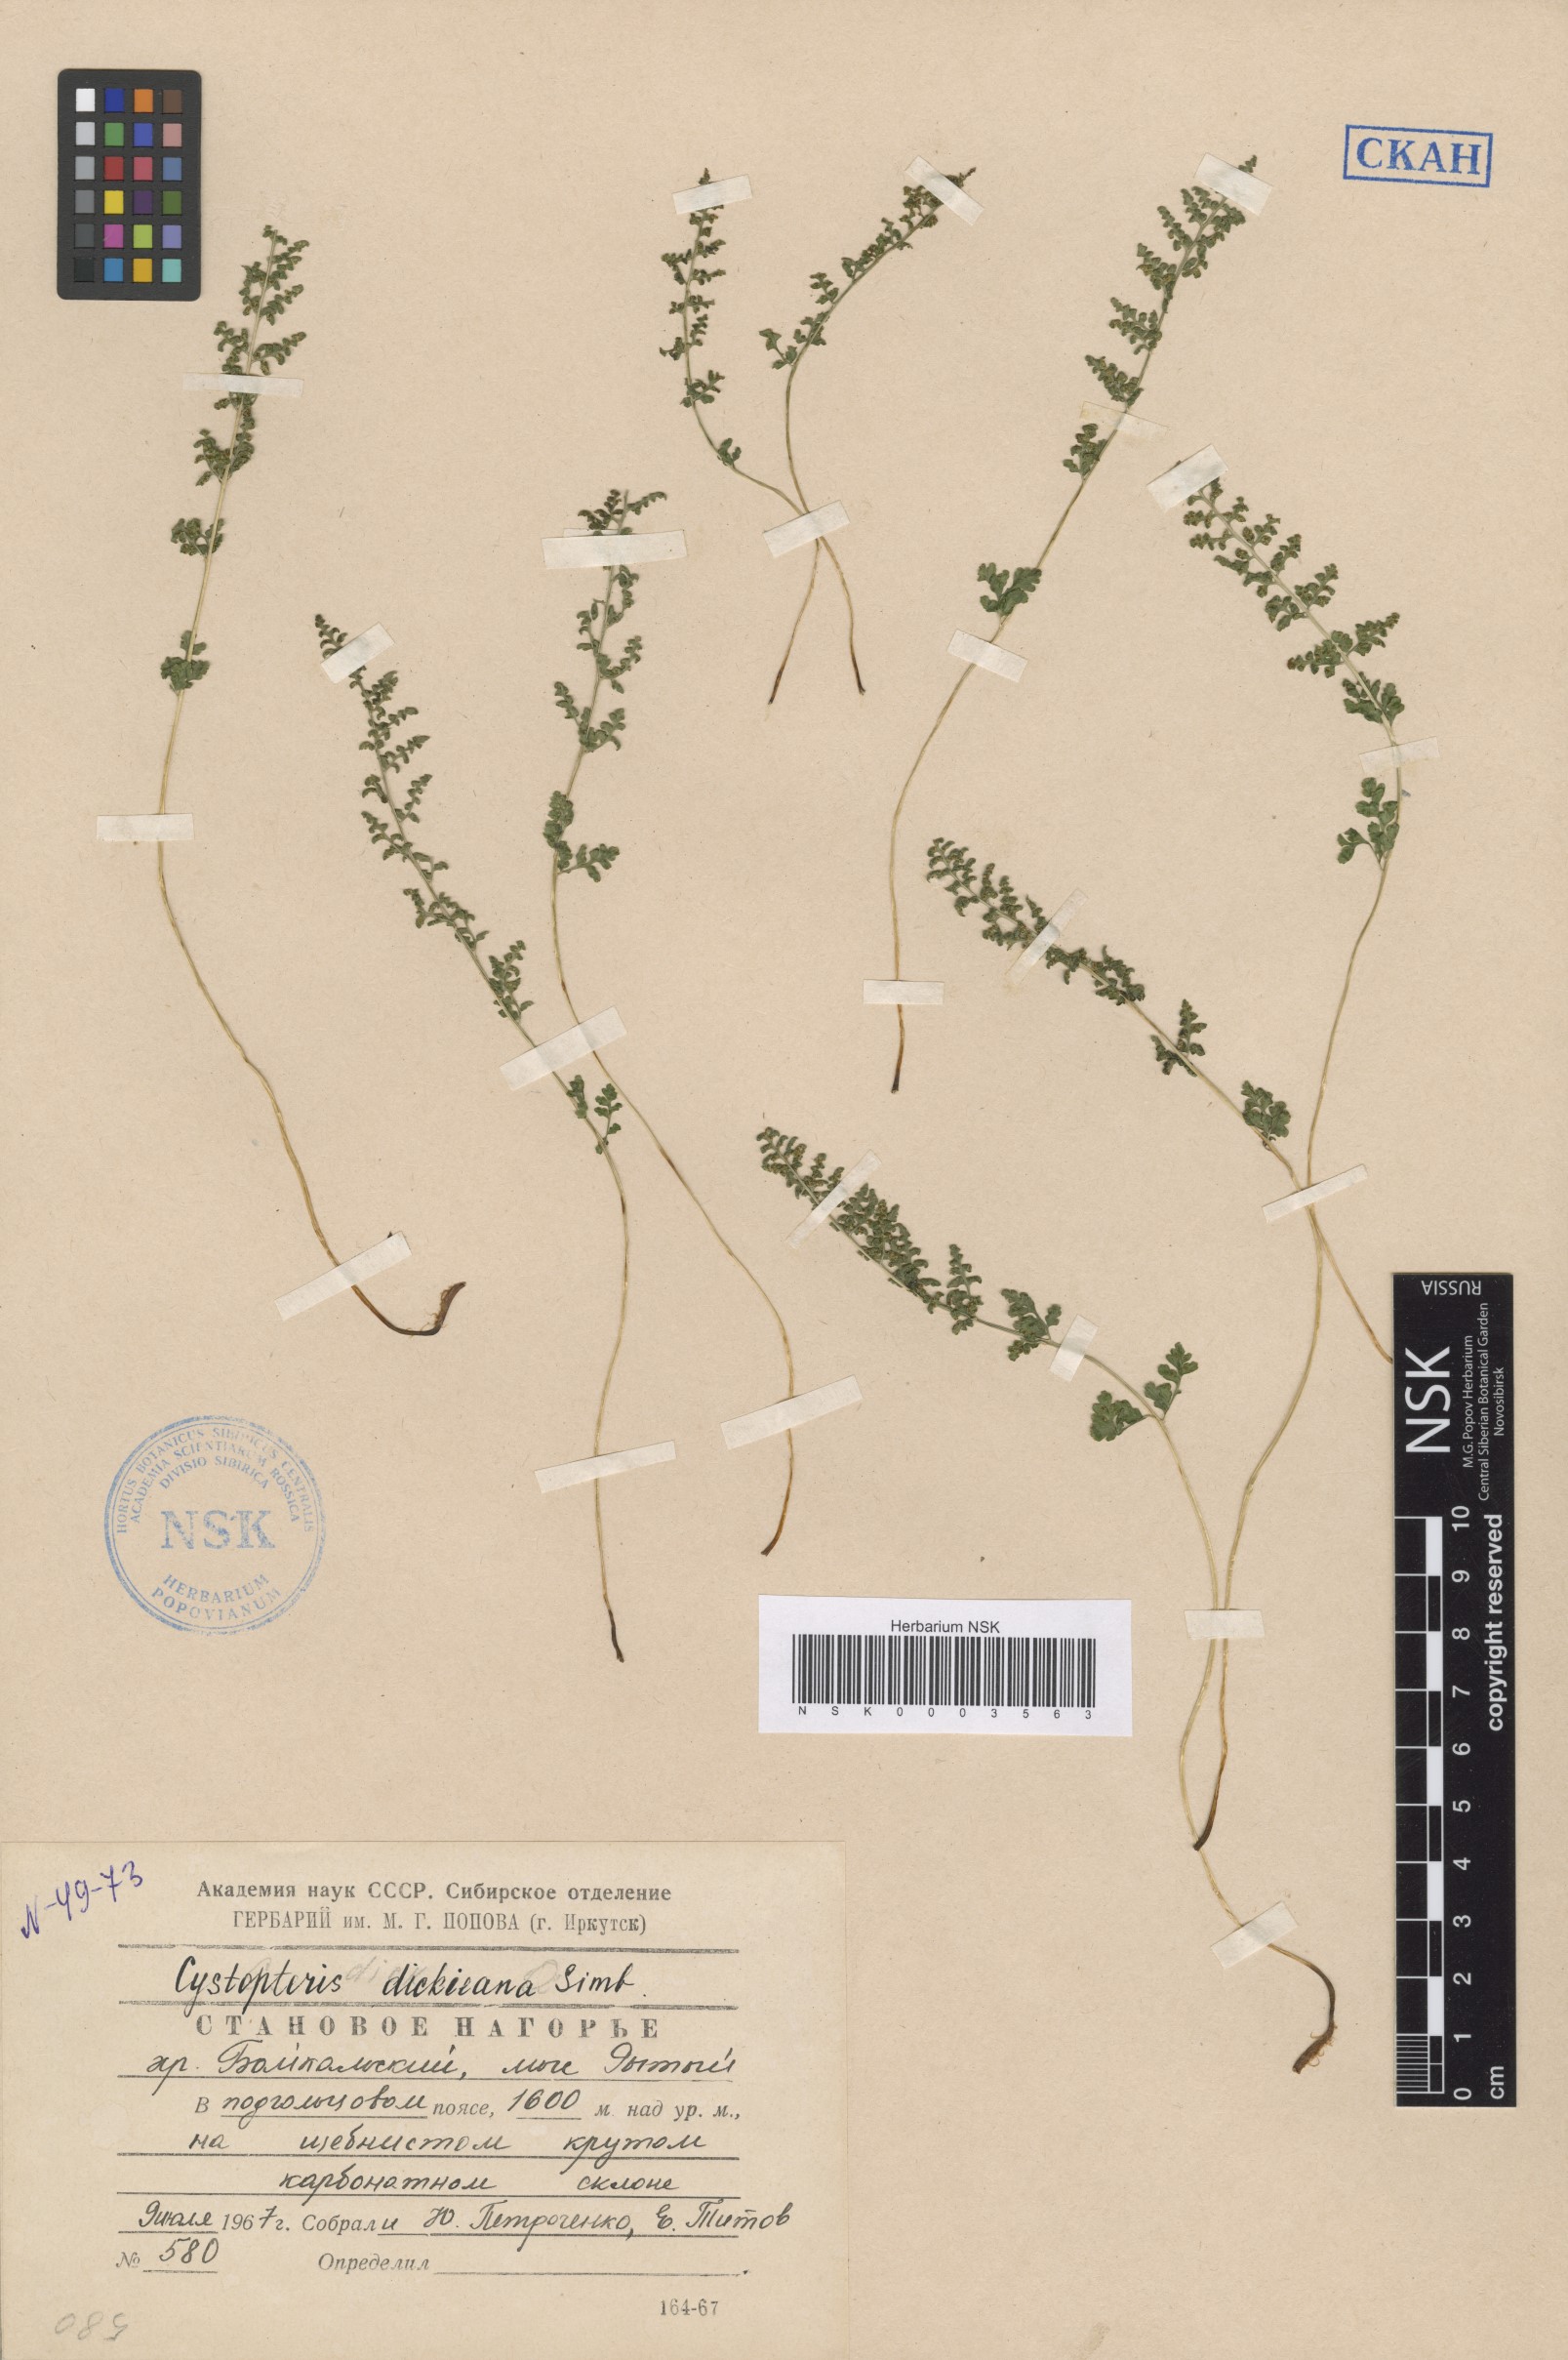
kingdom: Plantae
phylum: Tracheophyta
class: Polypodiopsida
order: Polypodiales
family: Cystopteridaceae
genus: Cystopteris
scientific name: Cystopteris dickieana
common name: Dickie's bladder-fern
